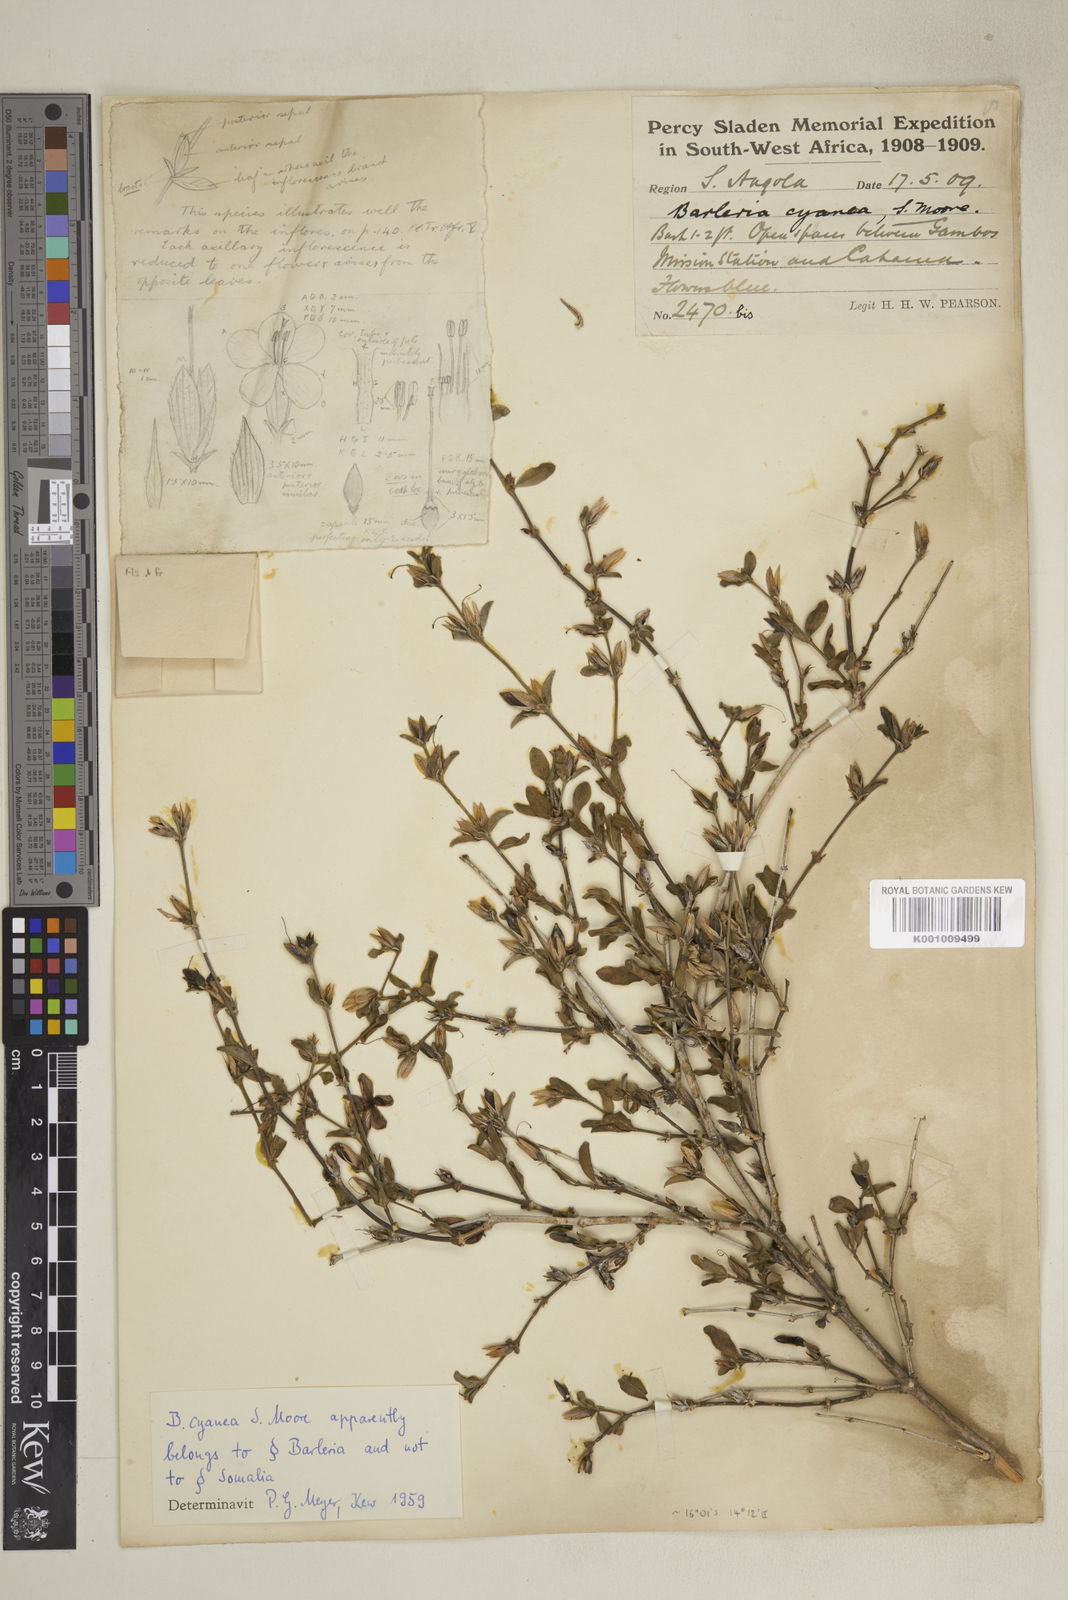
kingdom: Plantae
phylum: Tracheophyta
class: Magnoliopsida
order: Lamiales
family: Acanthaceae
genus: Barleria
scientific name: Barleria cyanea
